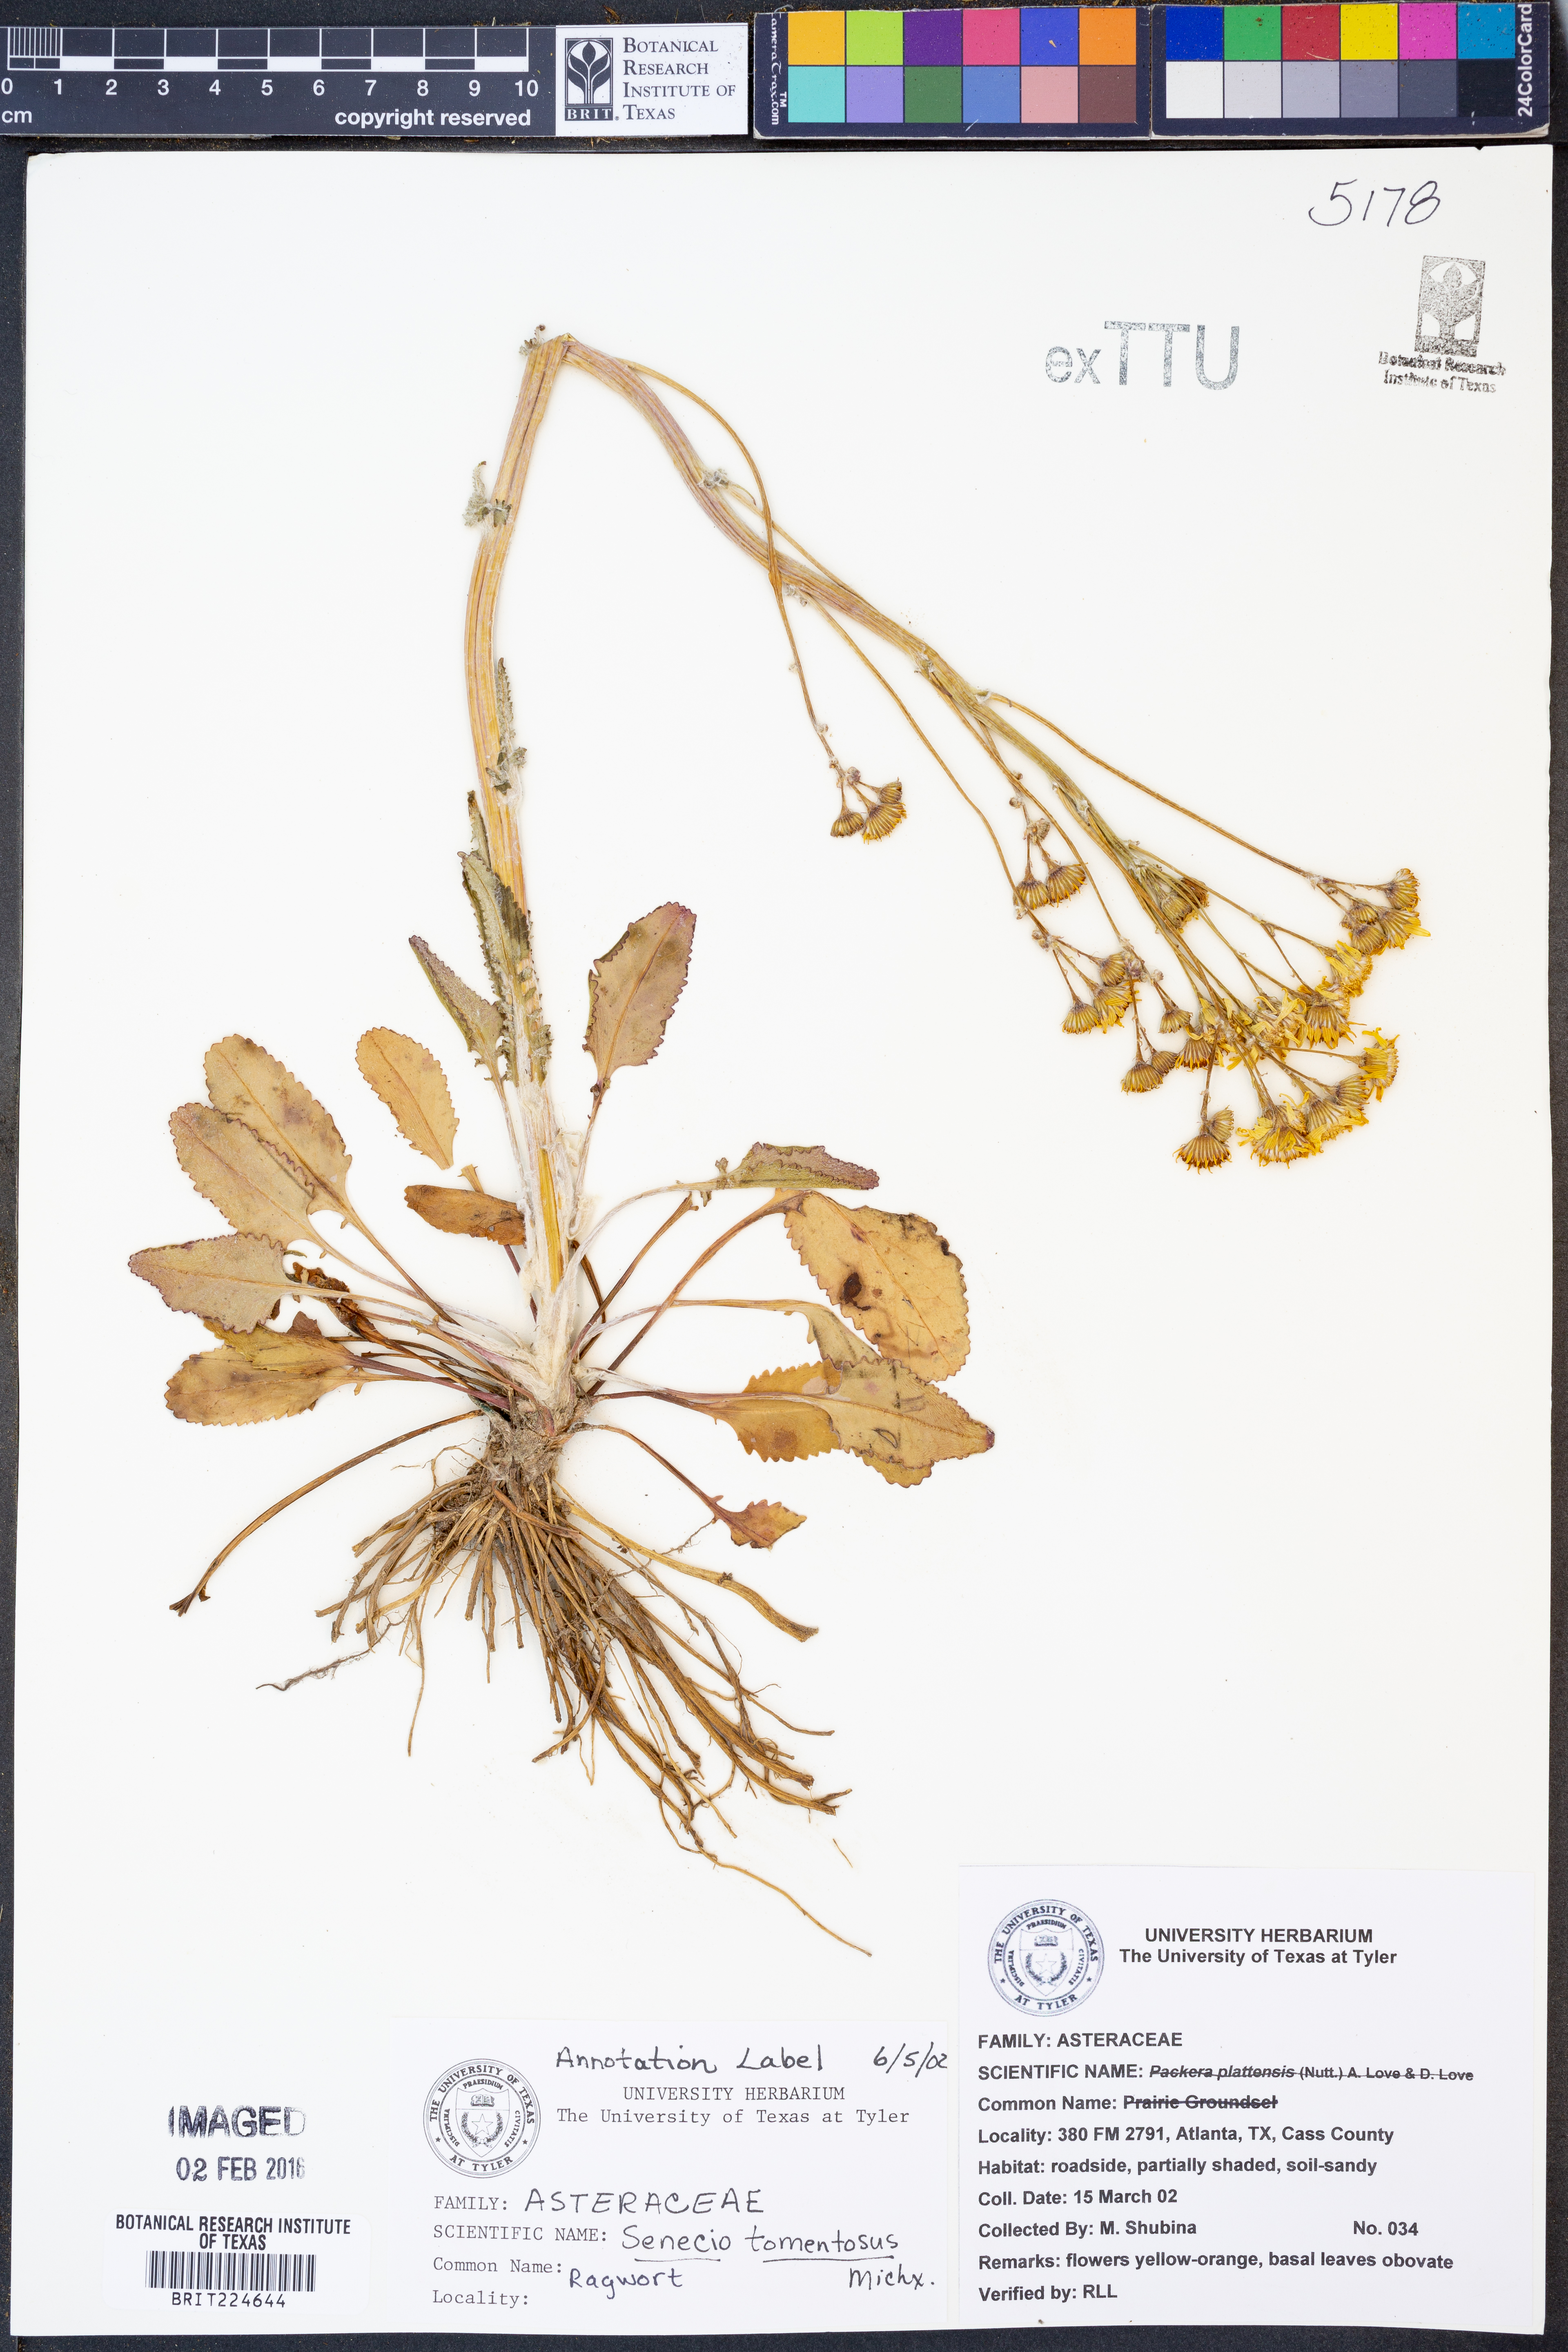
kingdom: Plantae
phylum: Tracheophyta
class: Magnoliopsida
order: Asterales
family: Asteraceae
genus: Senecio
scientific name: Senecio cinerascens
